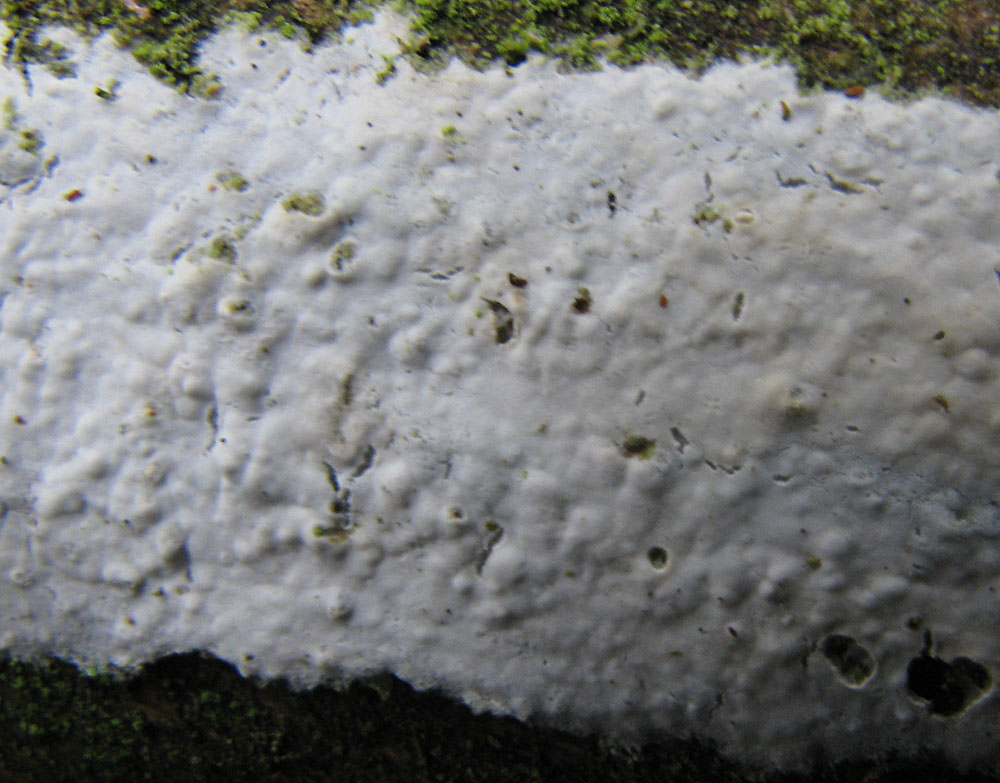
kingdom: Fungi
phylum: Basidiomycota
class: Agaricomycetes
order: Amylocorticiales
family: Amylocorticiaceae
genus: Amylocorticium
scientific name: Amylocorticium cebennense
